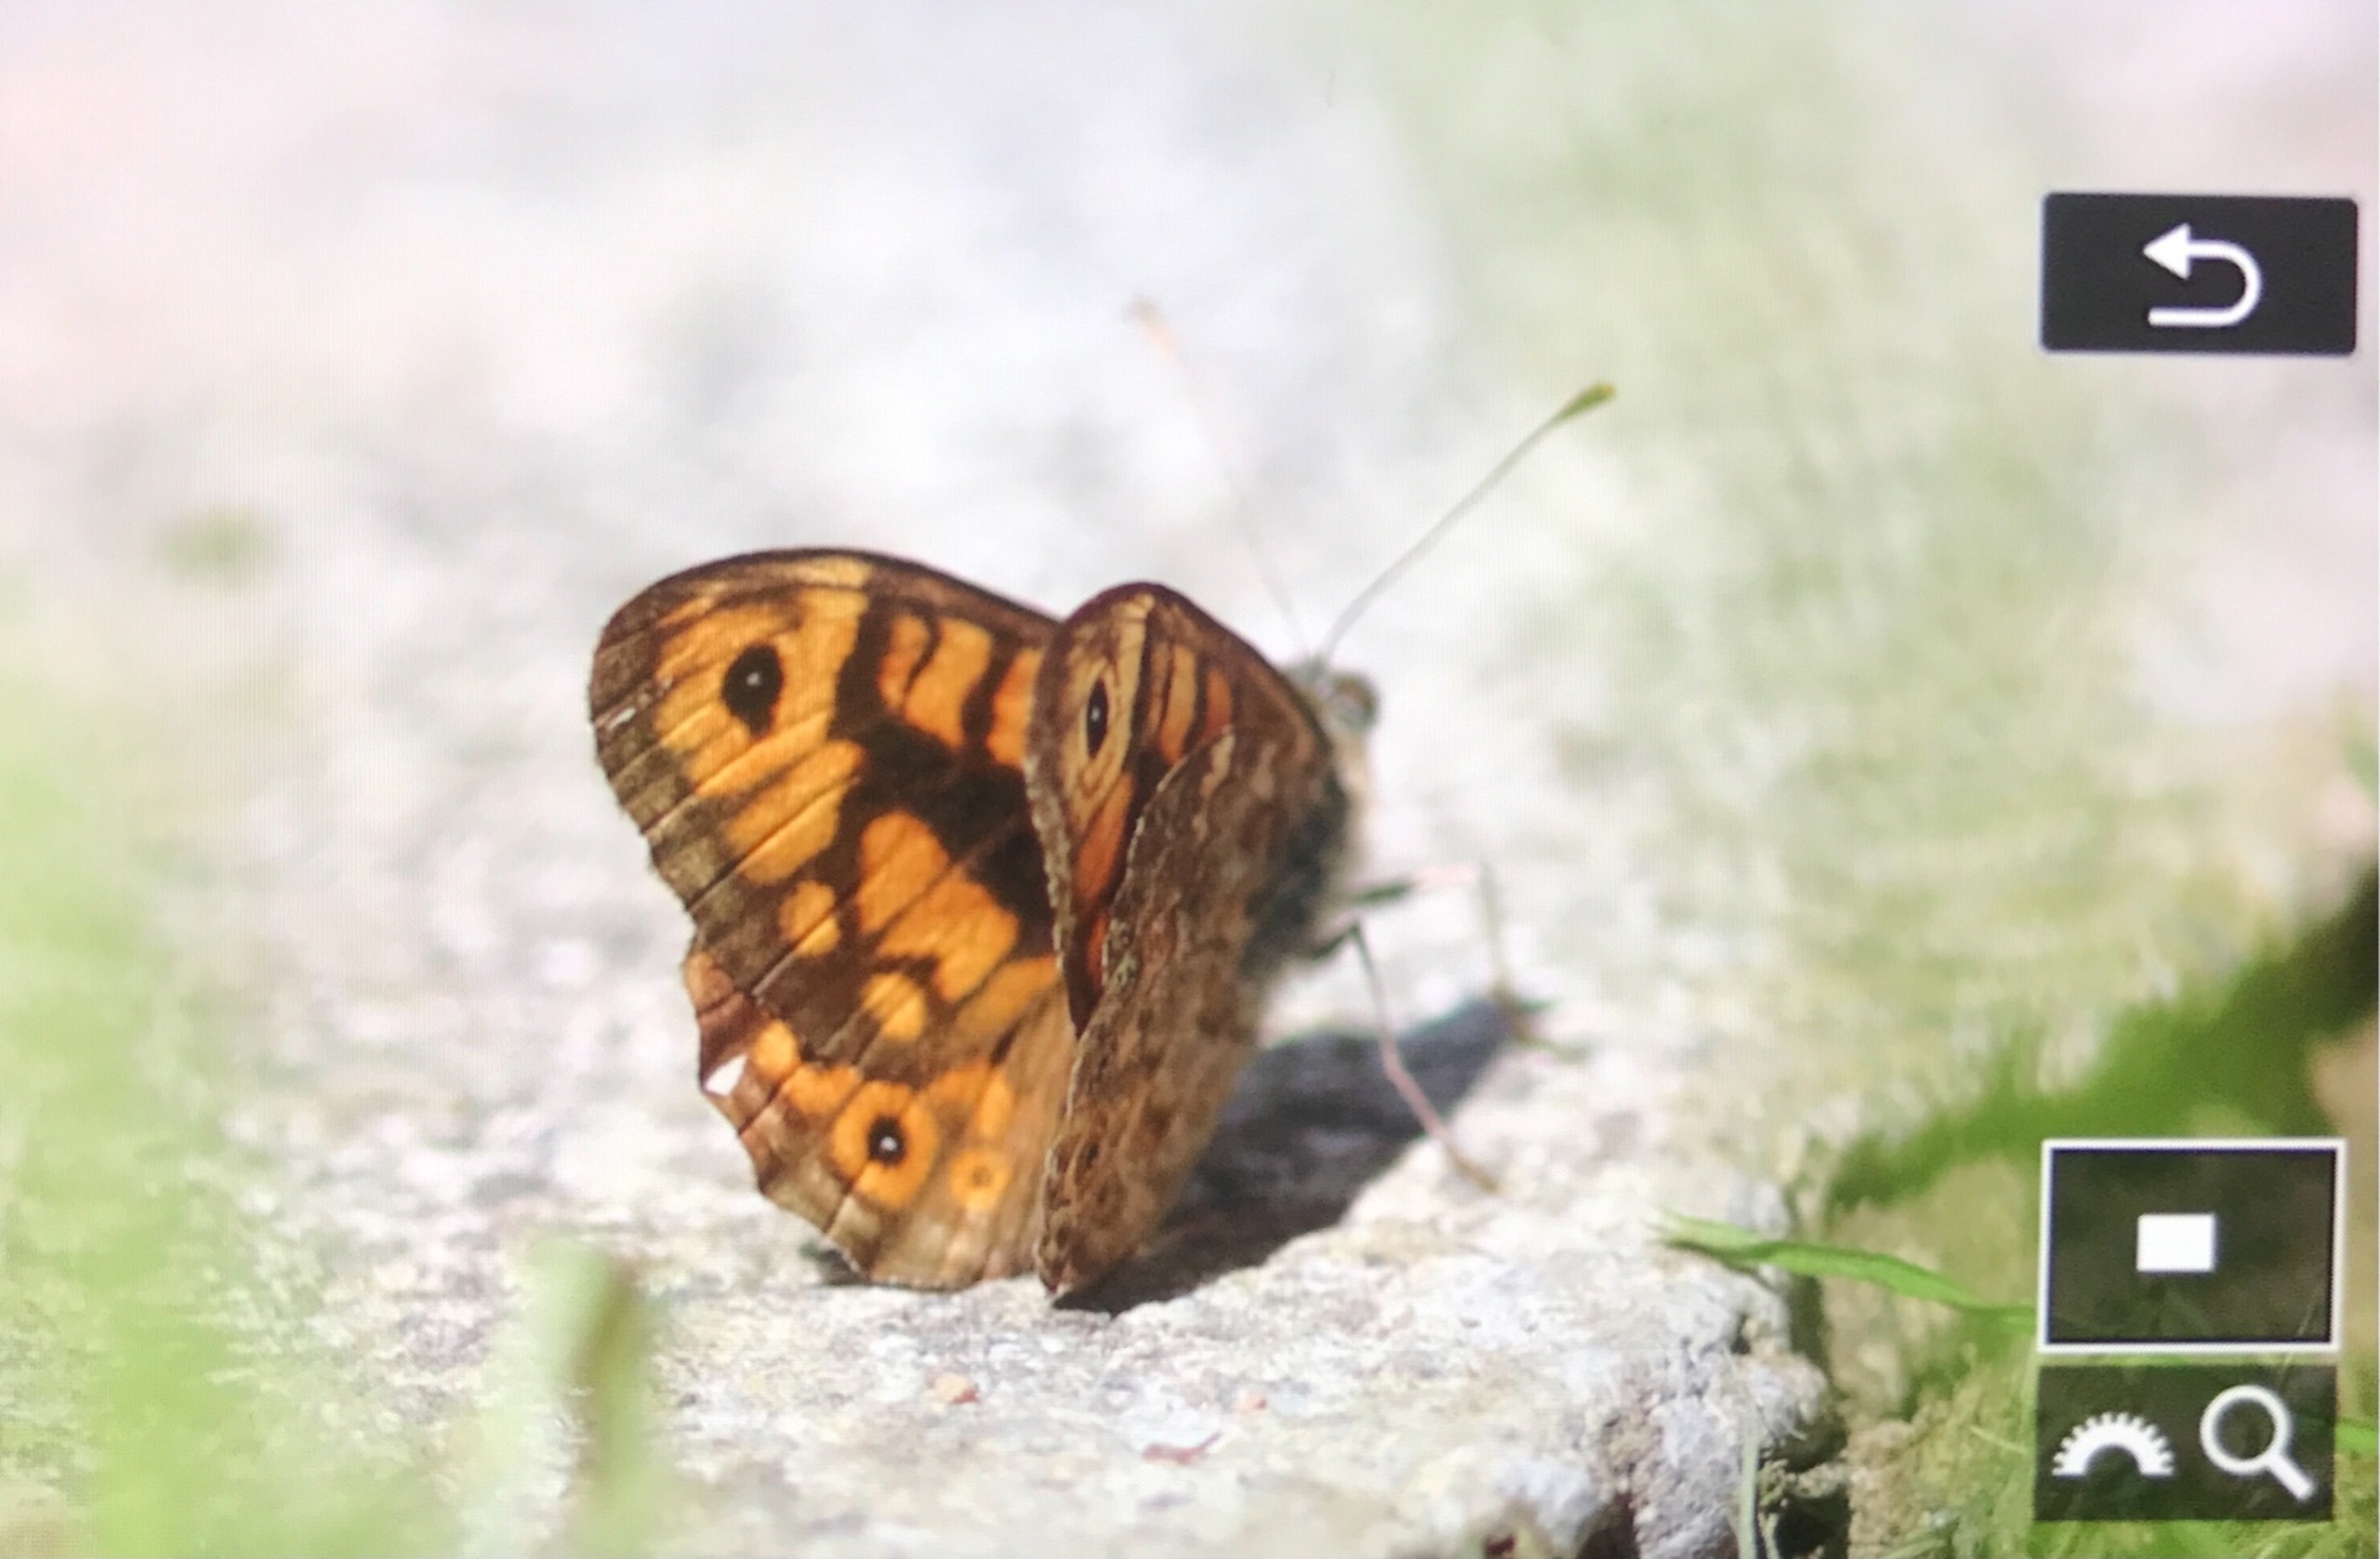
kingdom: Animalia
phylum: Arthropoda
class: Insecta
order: Lepidoptera
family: Nymphalidae
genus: Pararge
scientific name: Pararge Lasiommata megera
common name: Vejrandøje
